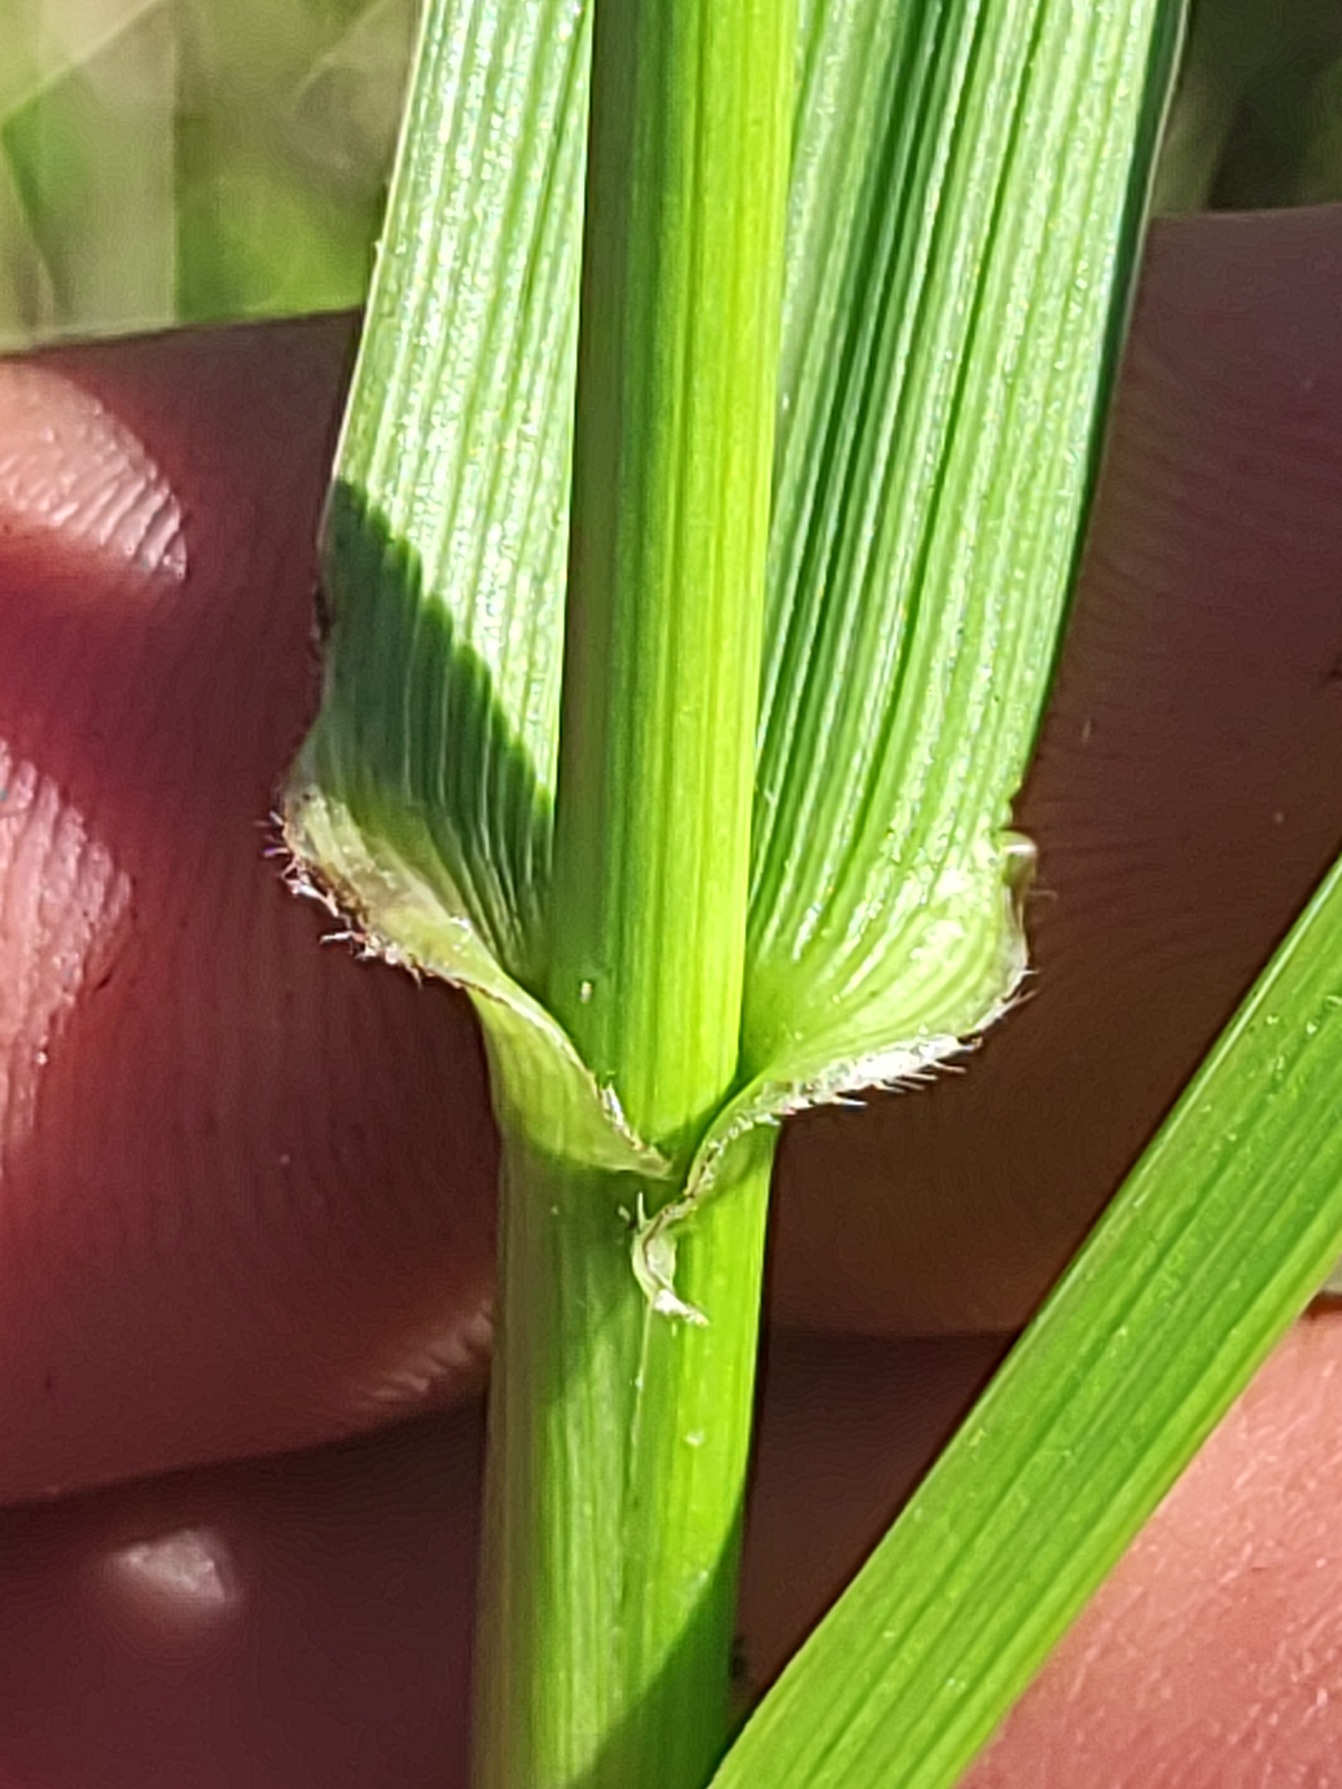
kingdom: Plantae
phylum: Tracheophyta
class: Liliopsida
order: Poales
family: Poaceae
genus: Lolium
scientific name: Lolium arundinaceum
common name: Strand-svingel
